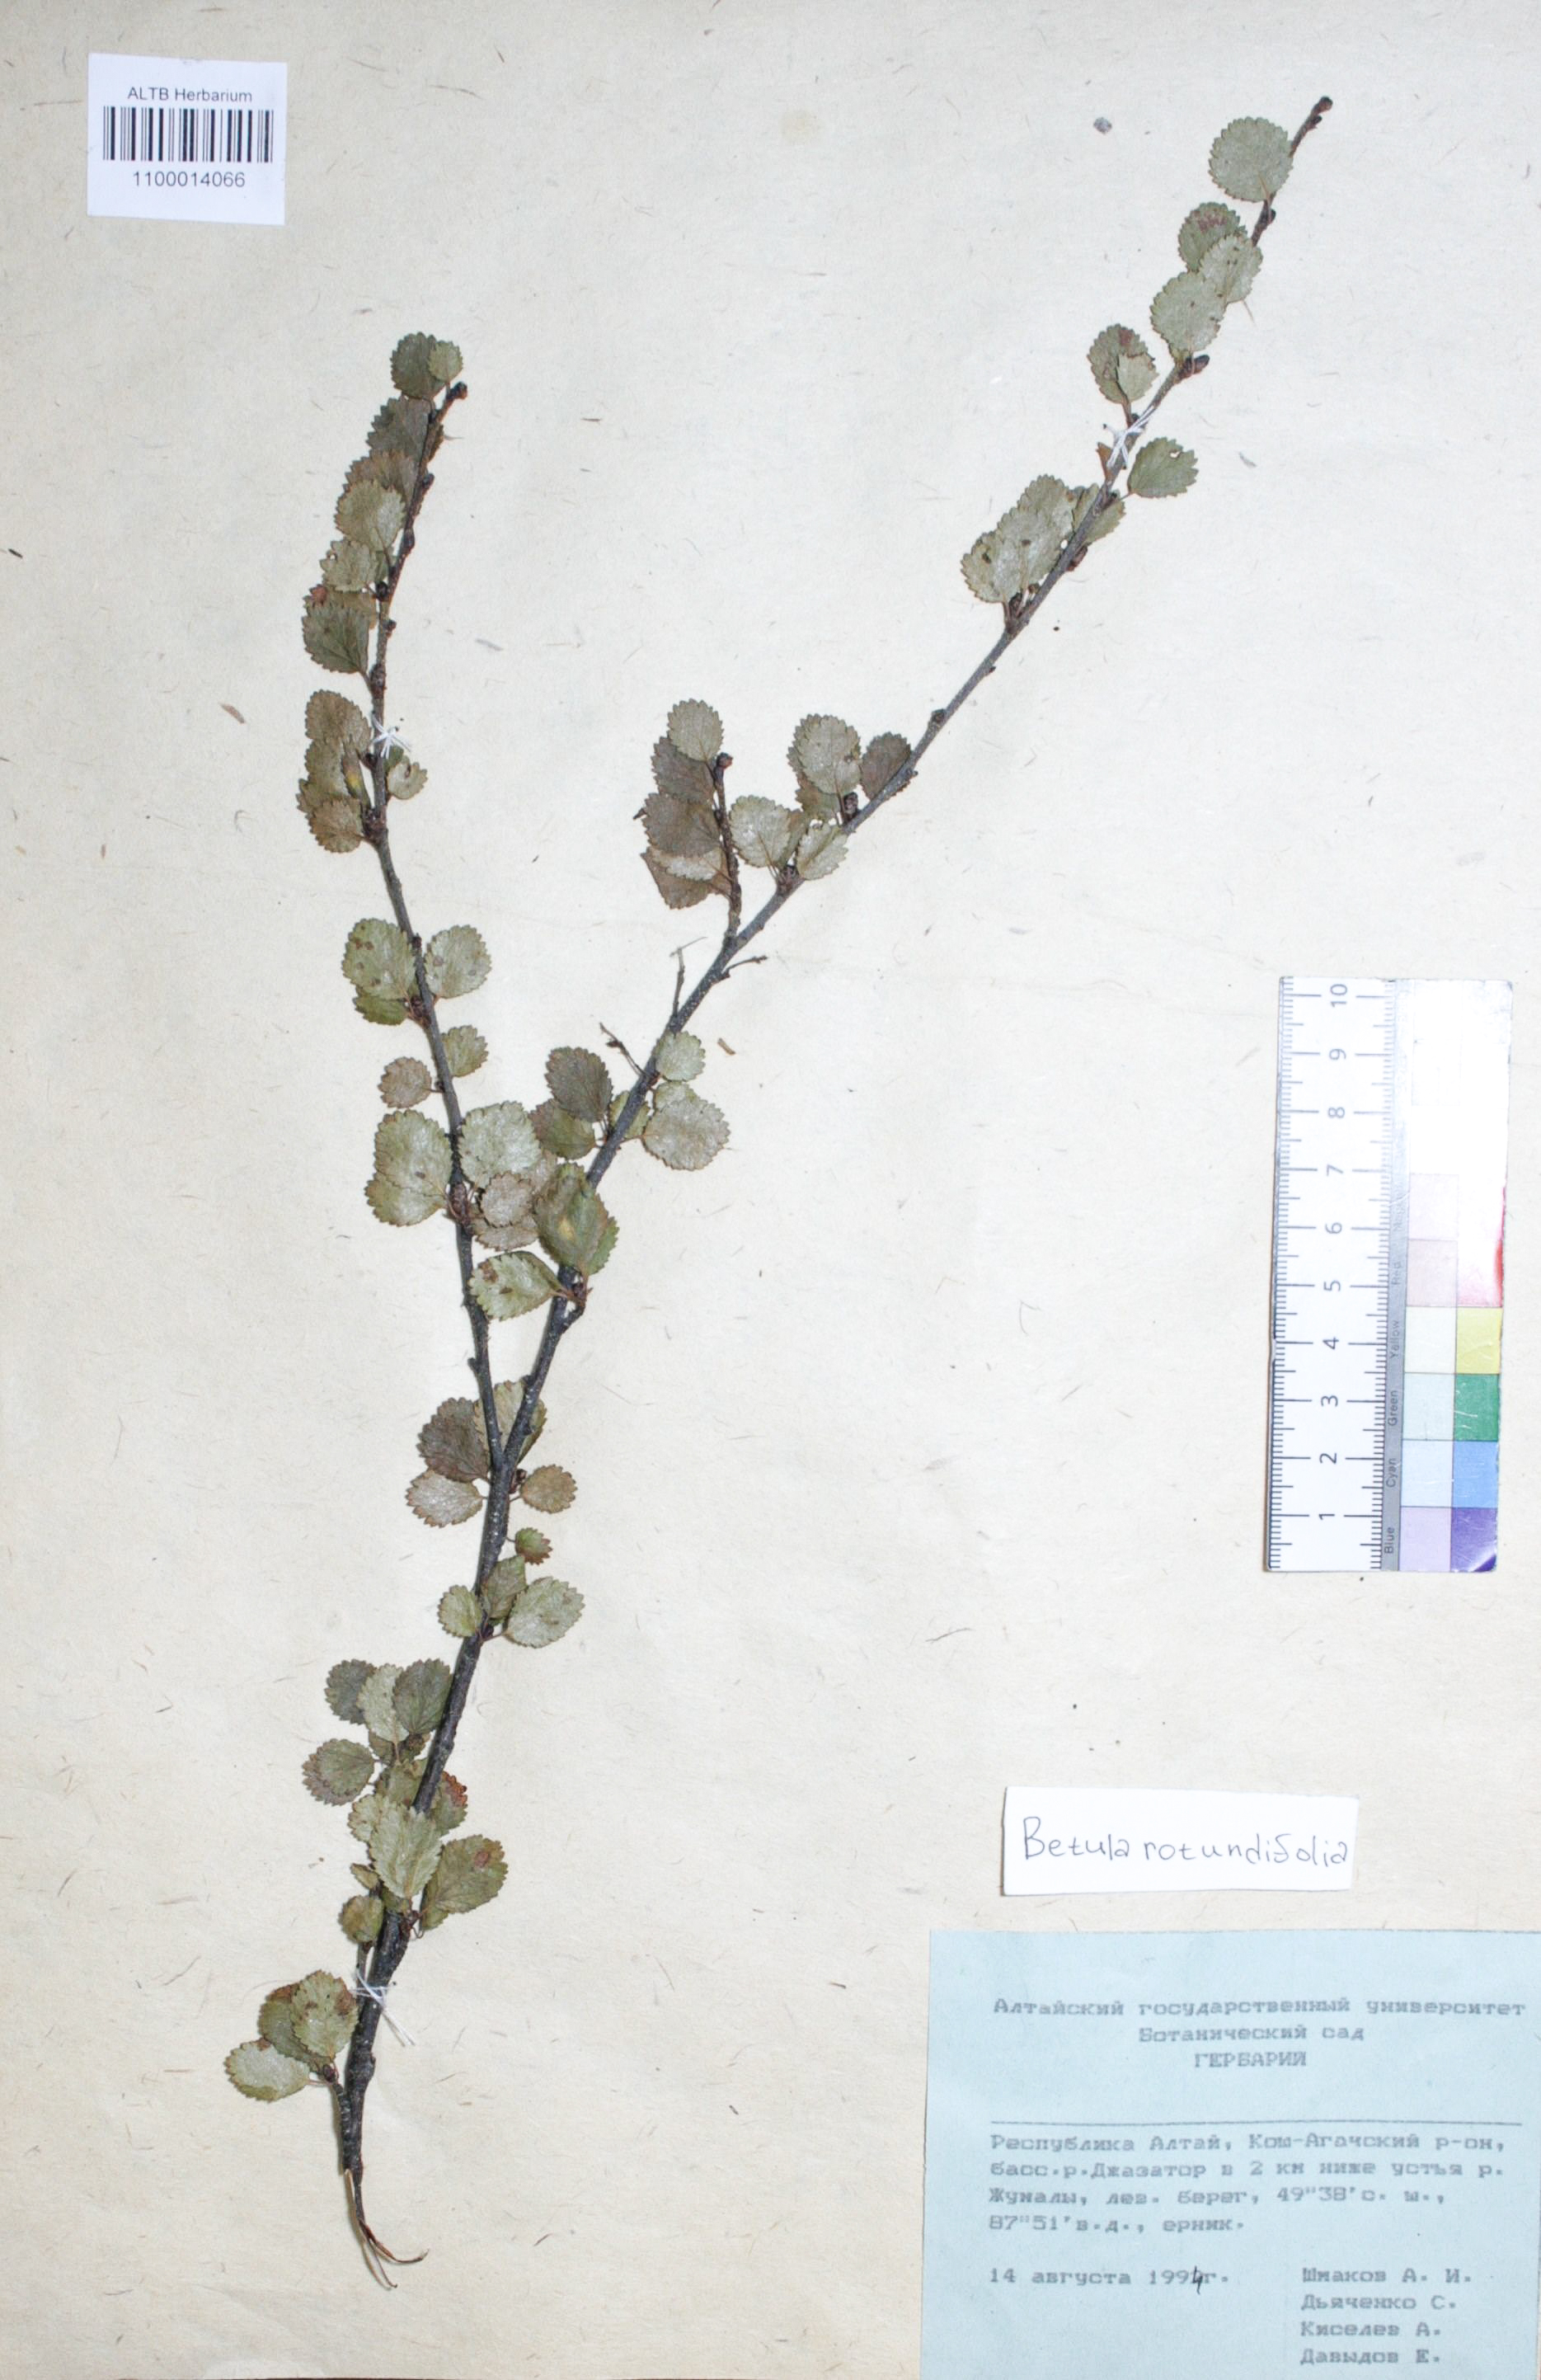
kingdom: Plantae
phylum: Tracheophyta
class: Magnoliopsida
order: Fagales
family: Betulaceae
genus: Betula
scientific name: Betula glandulosa
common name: Dwarf birch
